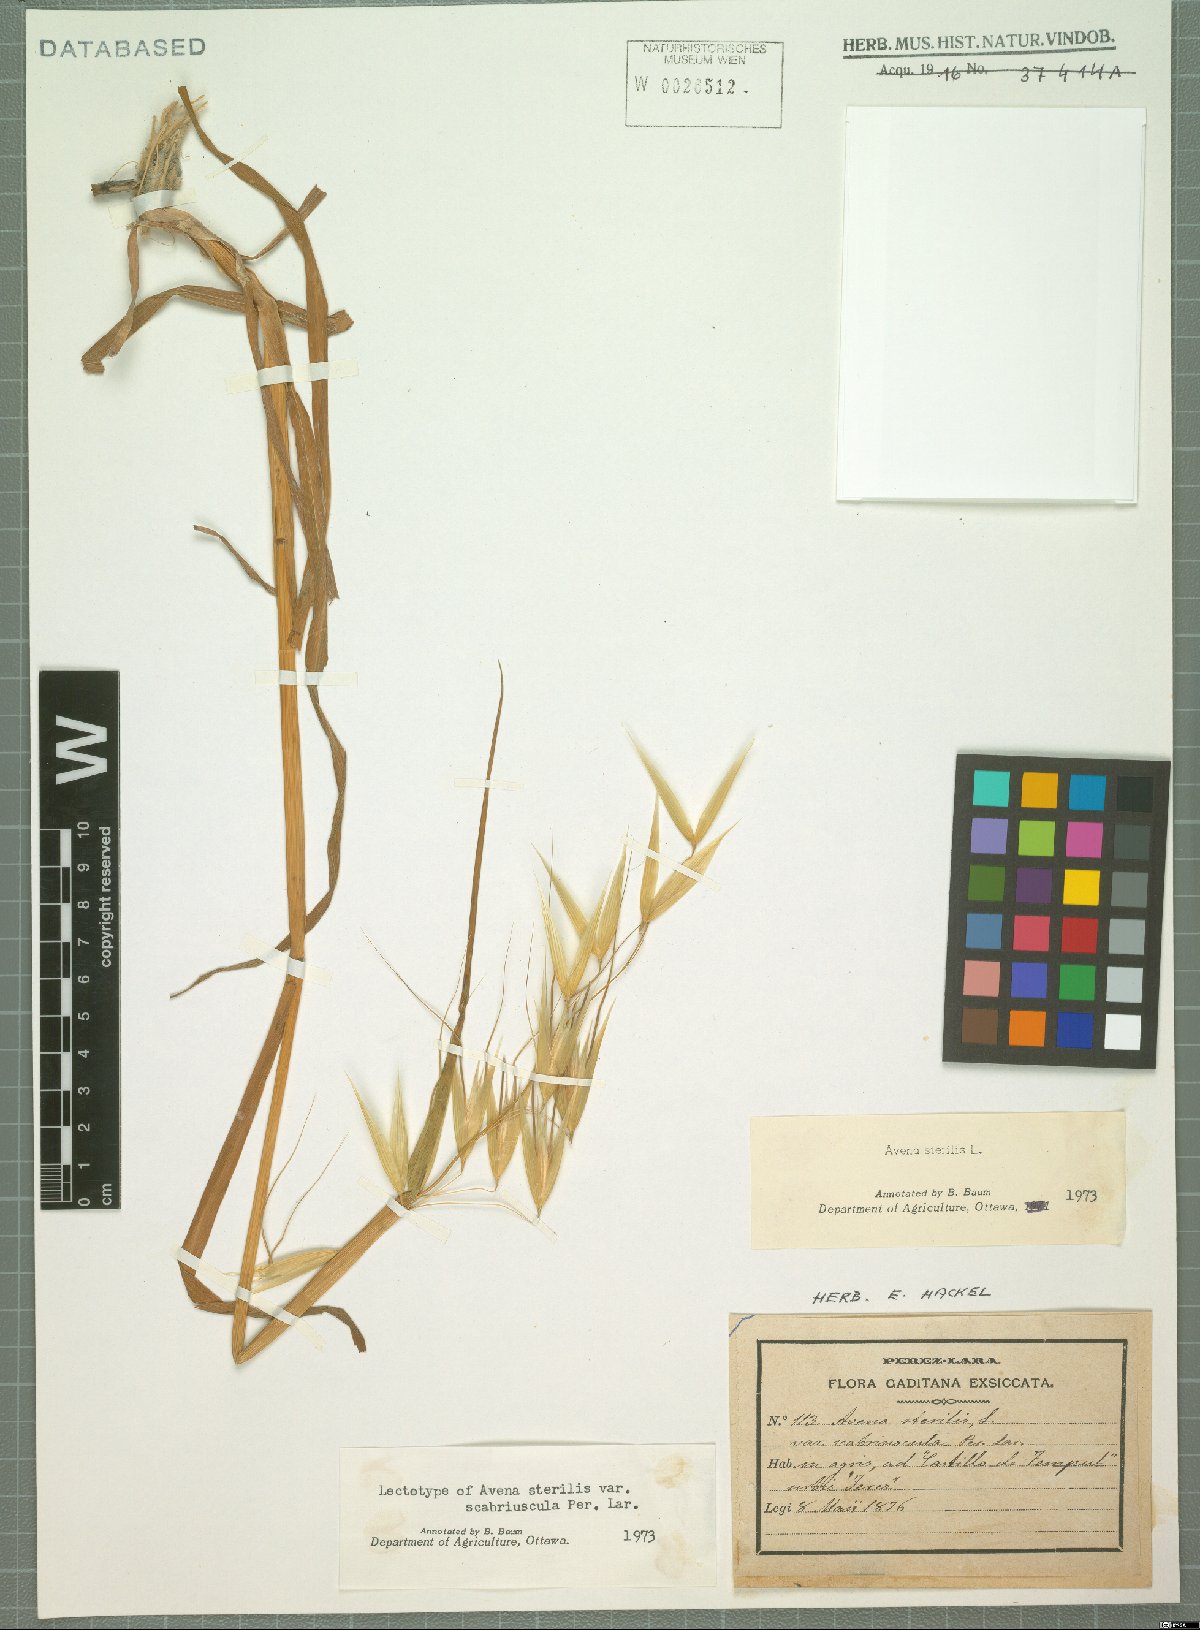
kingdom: Plantae
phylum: Tracheophyta
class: Liliopsida
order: Poales
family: Poaceae
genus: Avena
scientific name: Avena sterilis
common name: Animated oat
